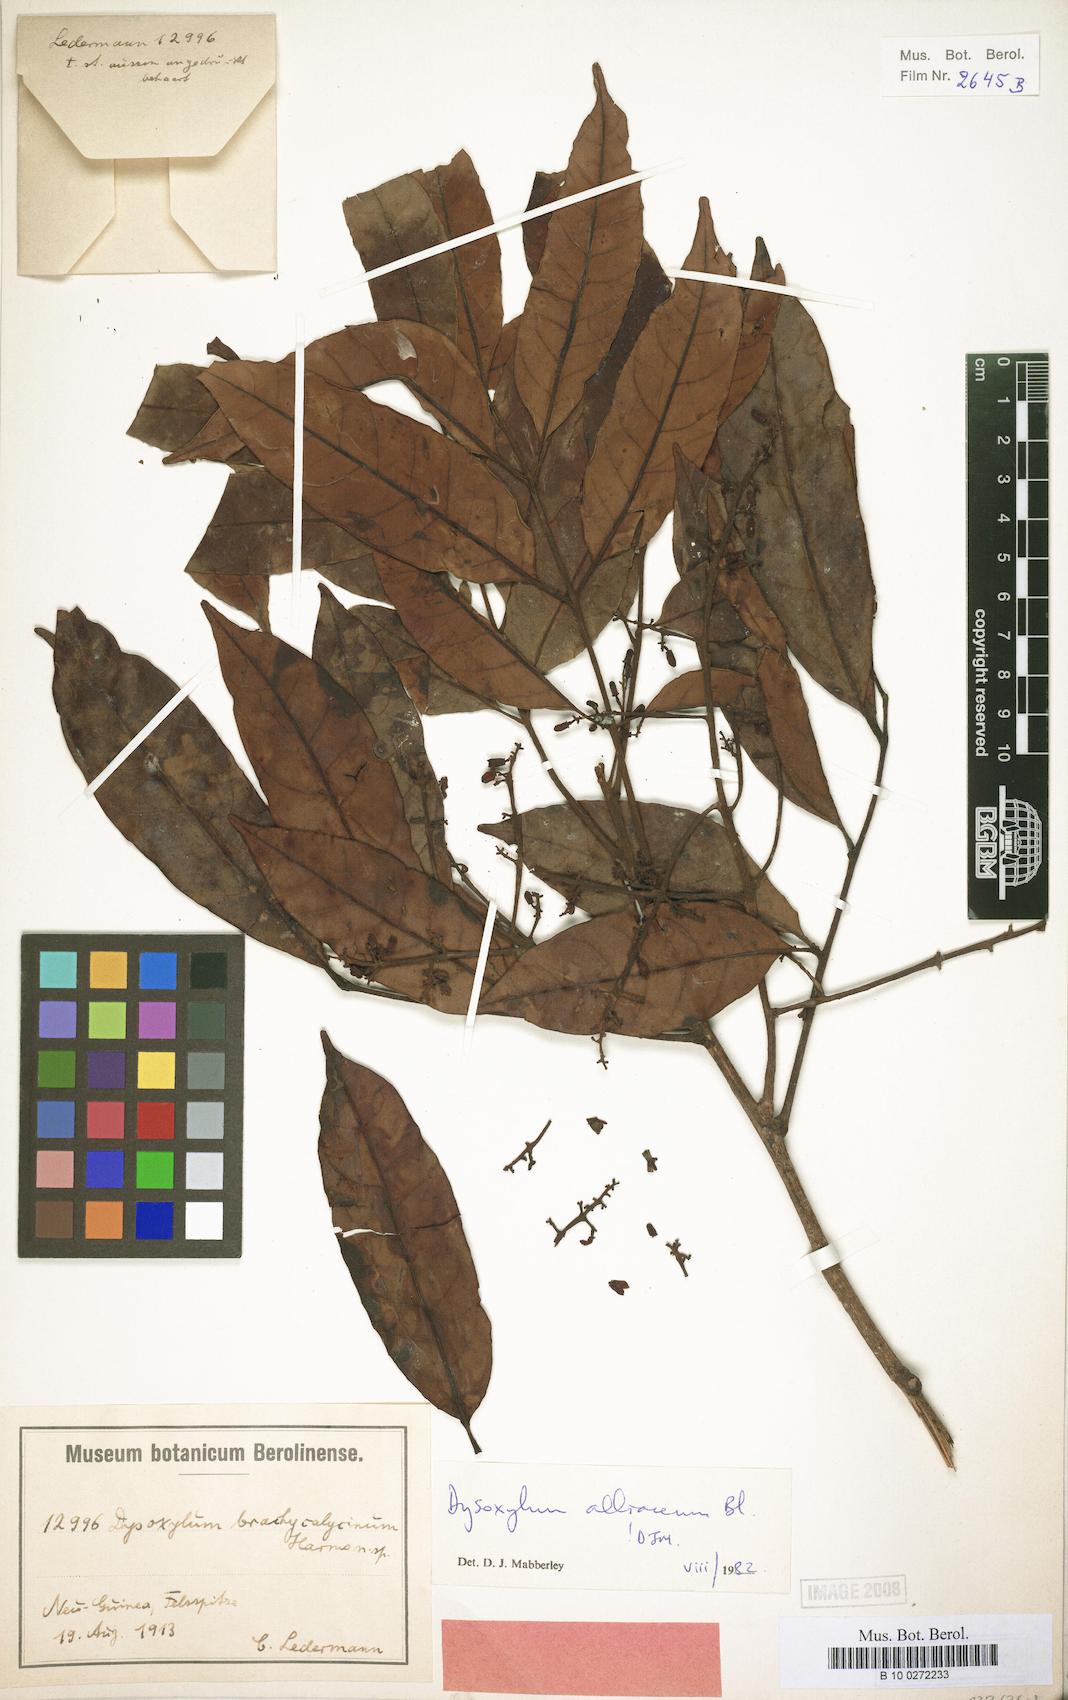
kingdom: Plantae
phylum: Tracheophyta
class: Magnoliopsida
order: Sapindales
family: Meliaceae
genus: Prasoxylon
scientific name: Prasoxylon alliaceum
